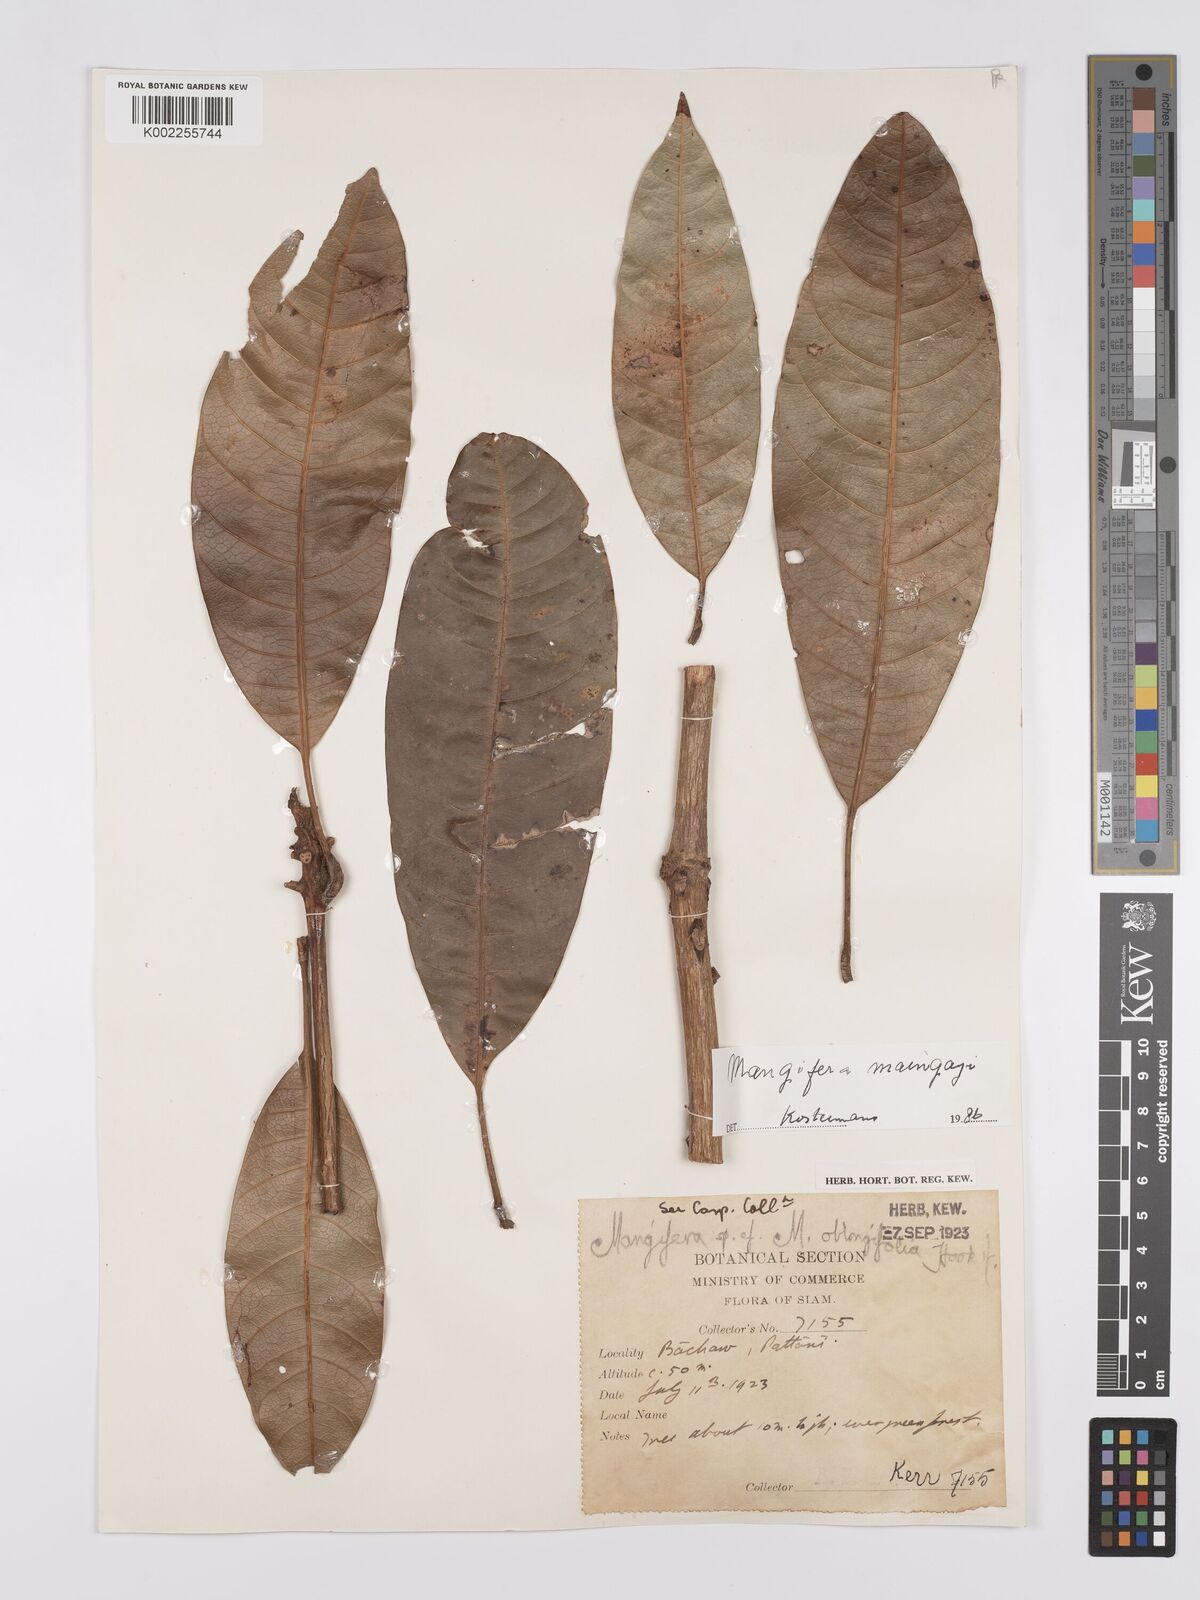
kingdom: Plantae
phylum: Tracheophyta
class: Magnoliopsida
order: Sapindales
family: Anacardiaceae
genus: Mangifera
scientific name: Mangifera quadrifida
